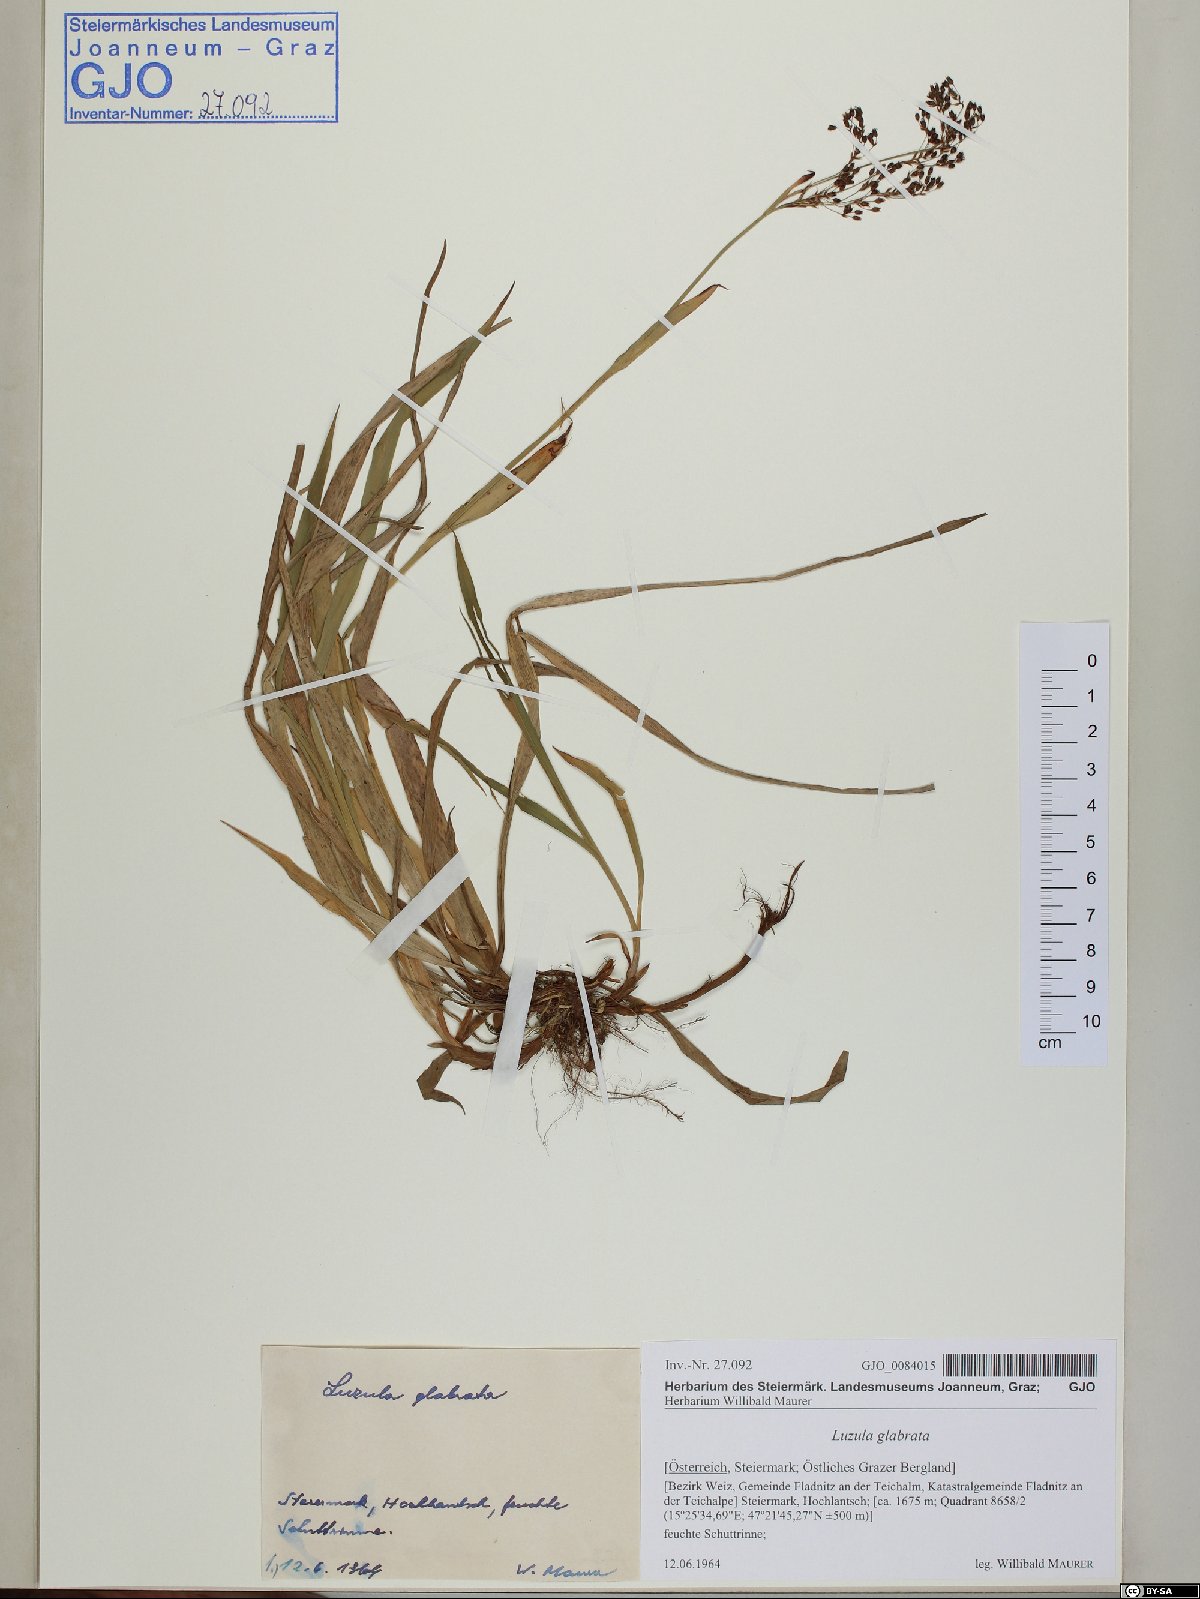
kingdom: Plantae
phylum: Tracheophyta
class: Liliopsida
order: Poales
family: Juncaceae
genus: Luzula
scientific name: Luzula glabrata
